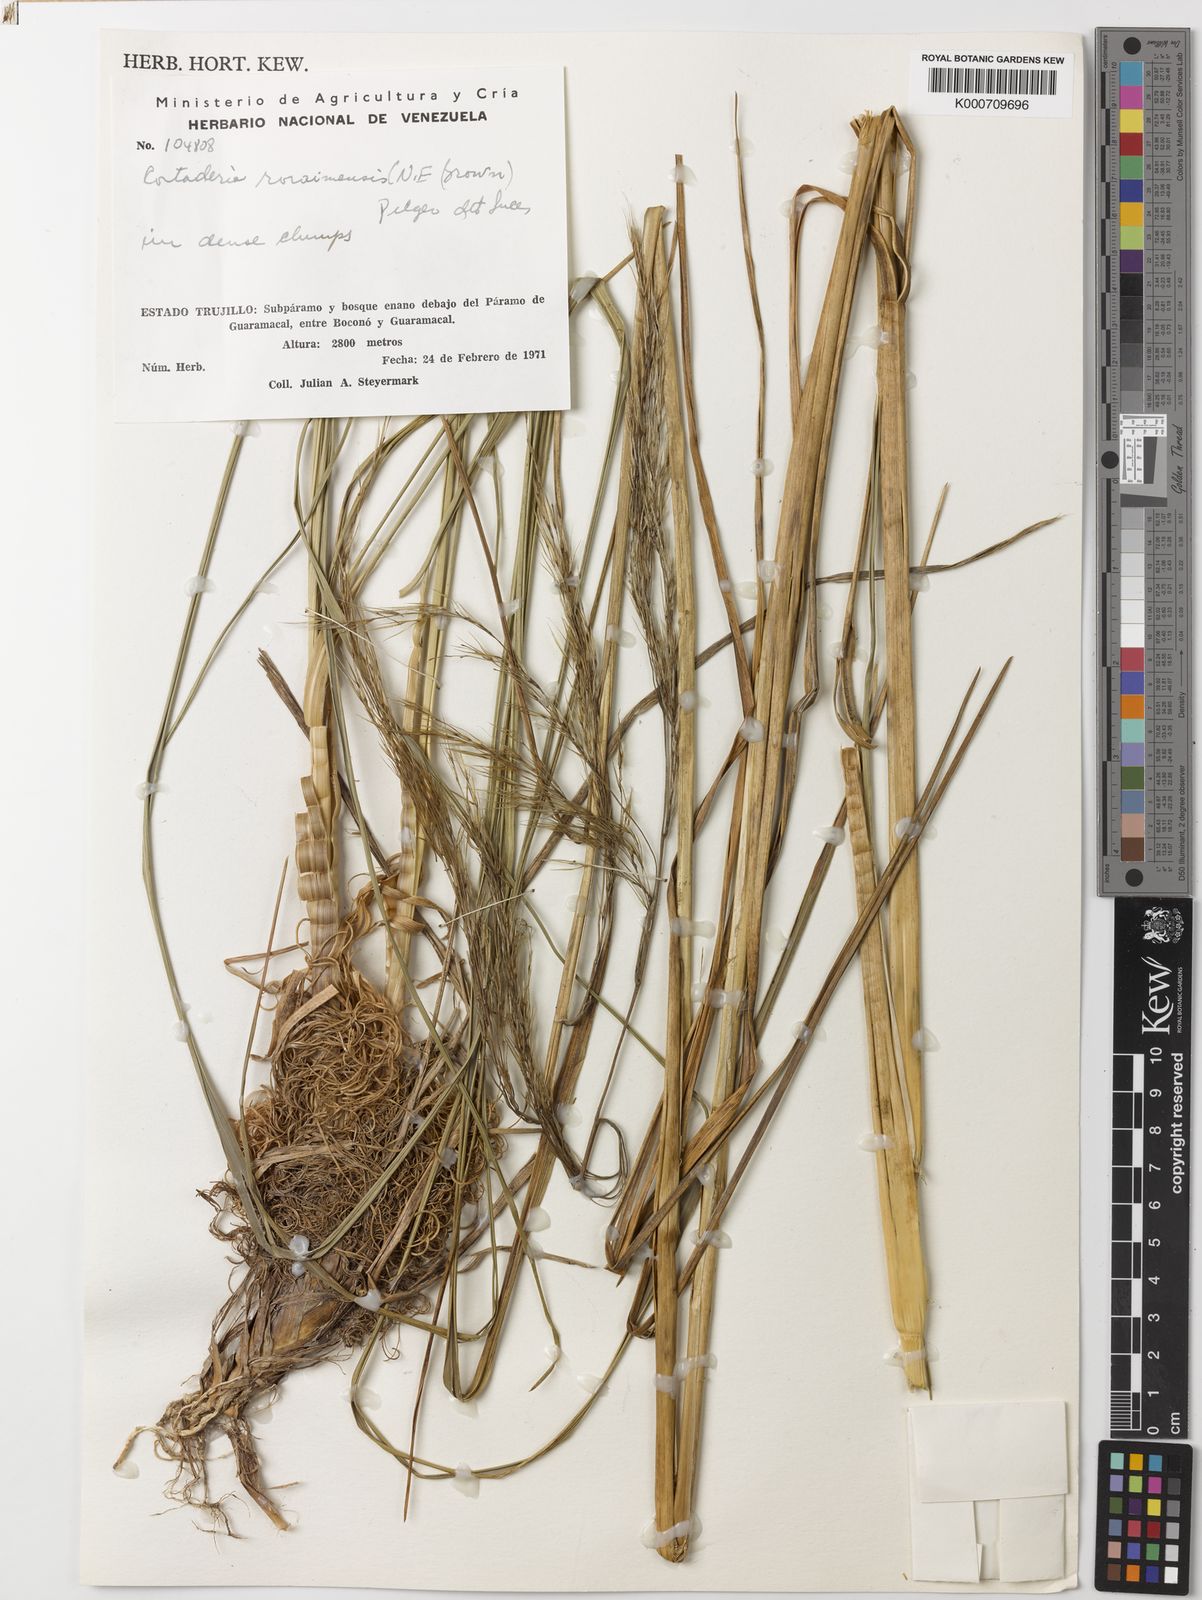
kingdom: Plantae
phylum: Tracheophyta
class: Liliopsida
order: Poales
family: Poaceae
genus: Cortaderia
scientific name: Cortaderia hapalotricha
